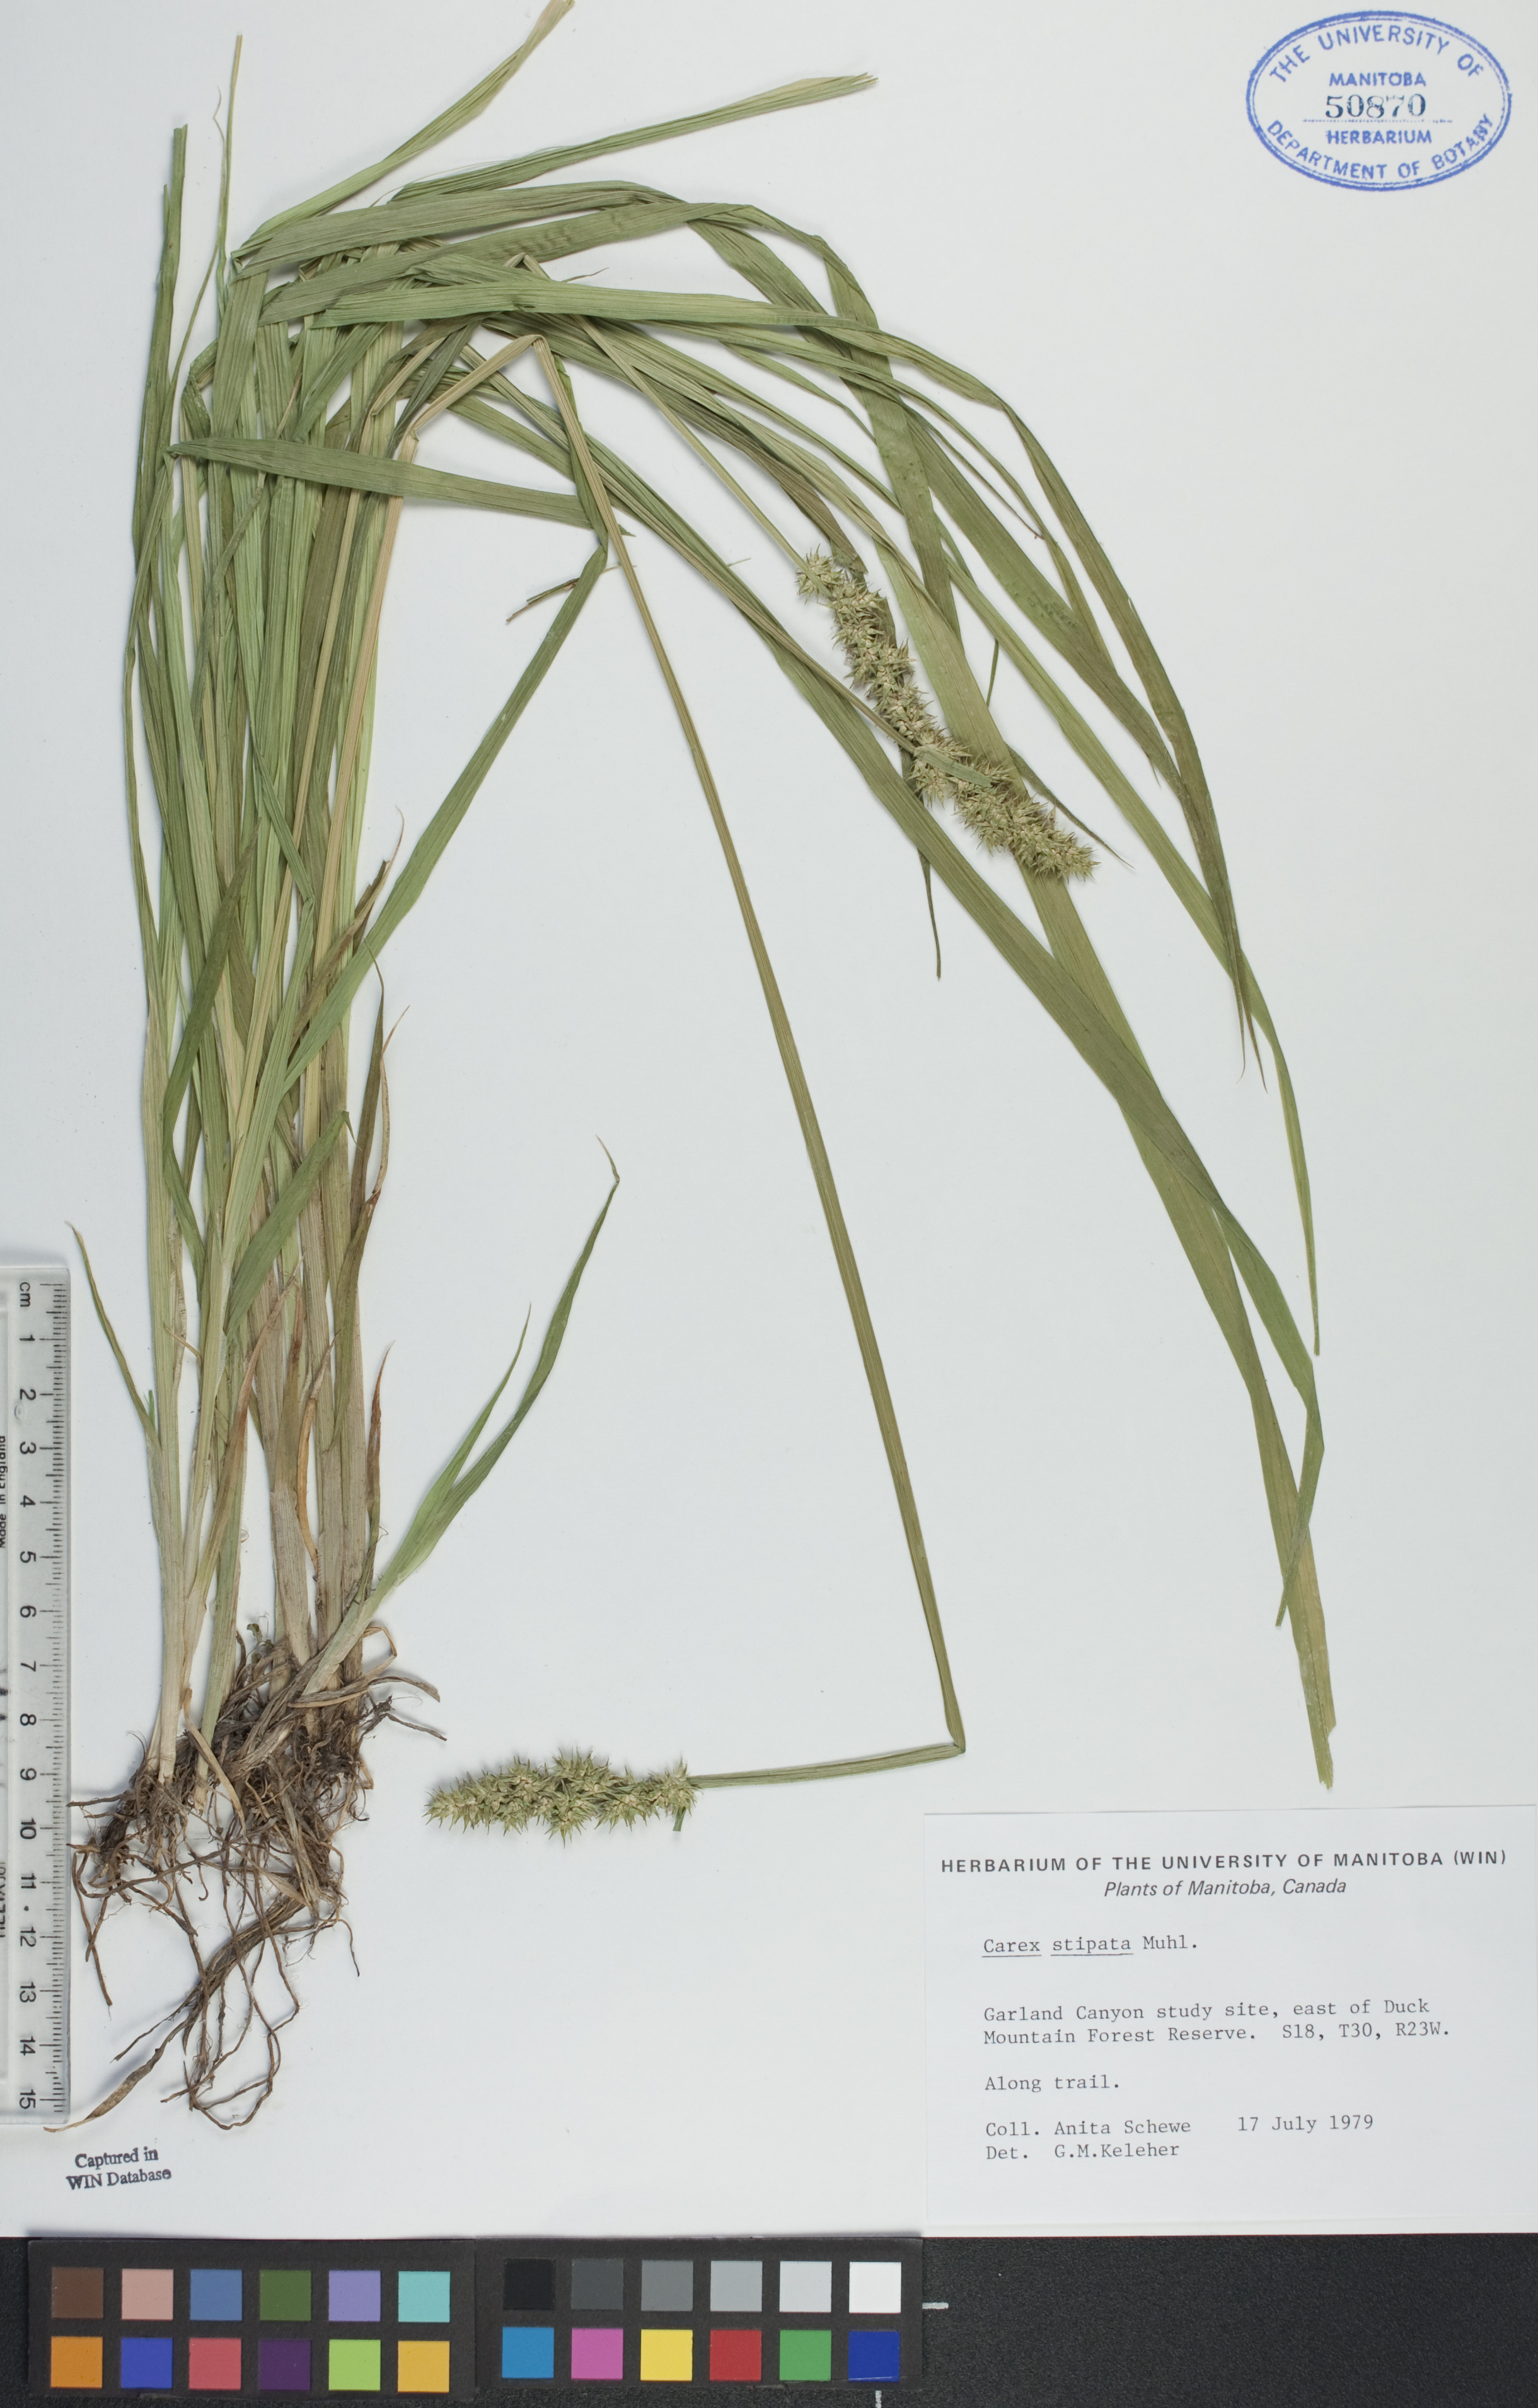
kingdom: Plantae
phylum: Tracheophyta
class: Liliopsida
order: Poales
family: Cyperaceae
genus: Carex
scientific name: Carex stipata
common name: Awl-fruited sedge
